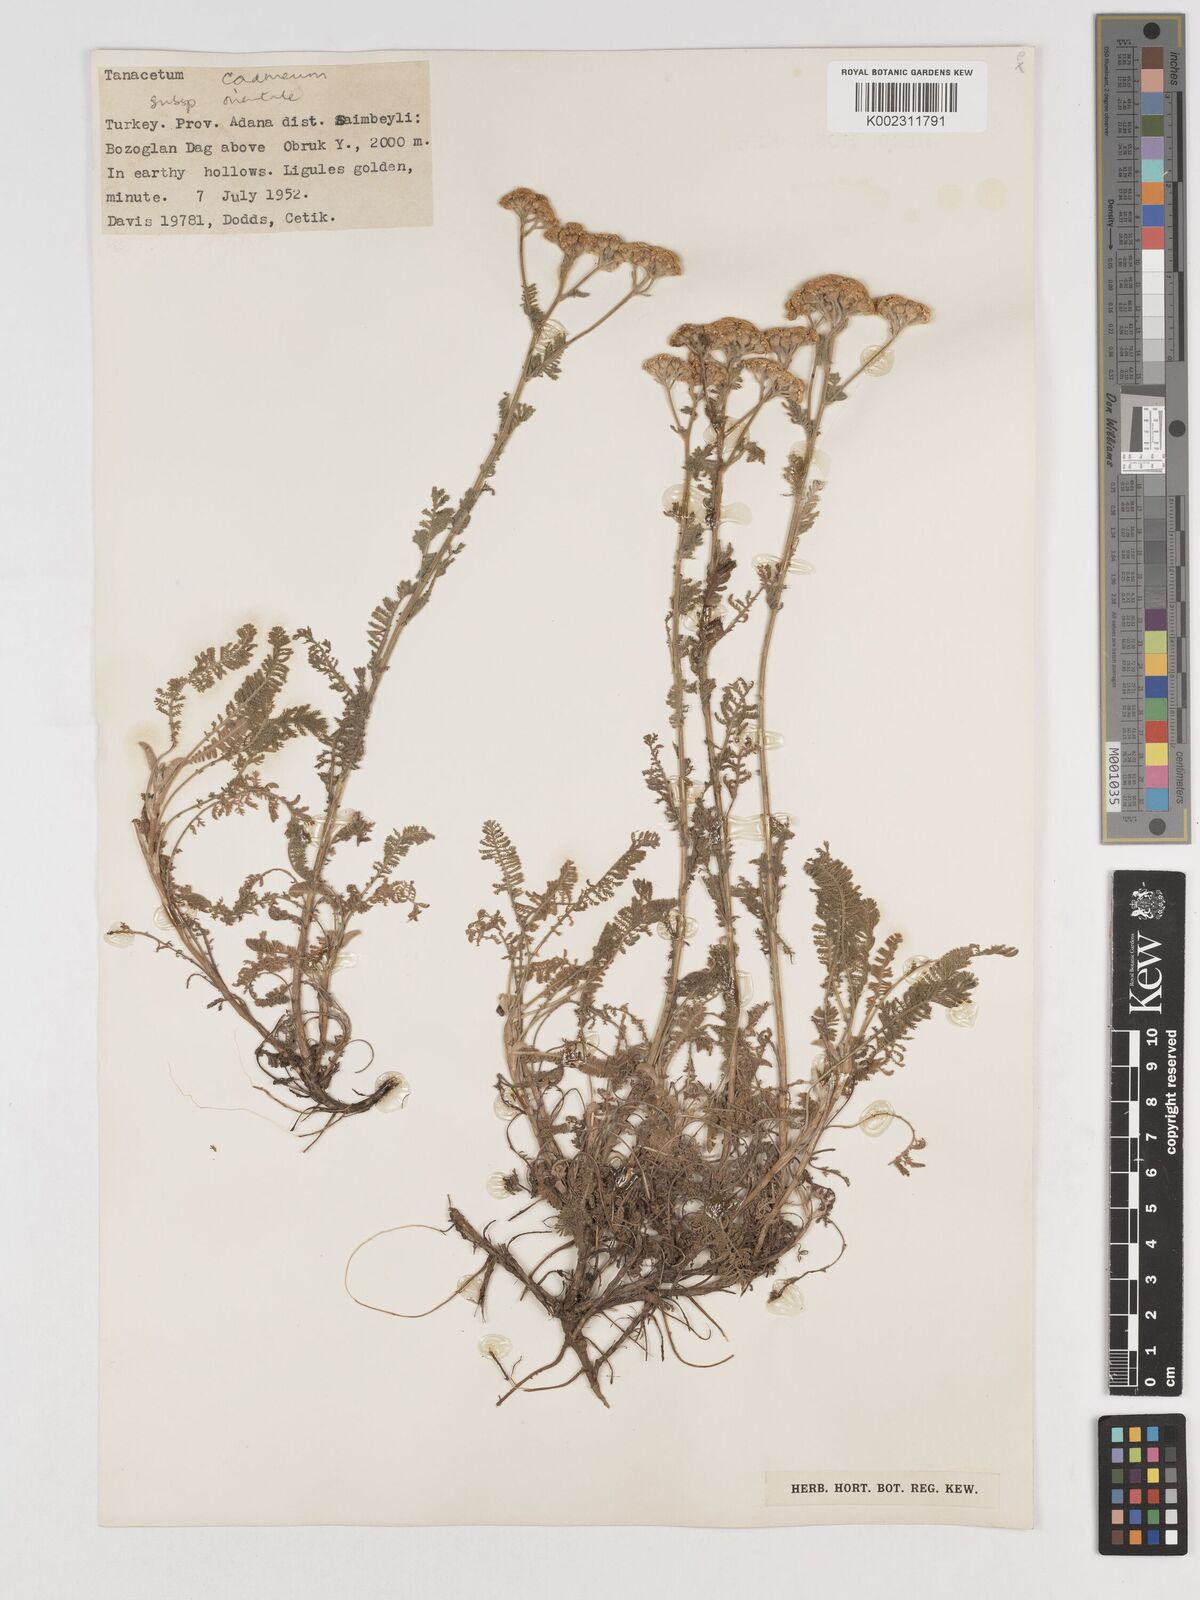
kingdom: Plantae
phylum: Tracheophyta
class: Magnoliopsida
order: Asterales
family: Asteraceae
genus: Tanacetum
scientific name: Tanacetum cadmeum
